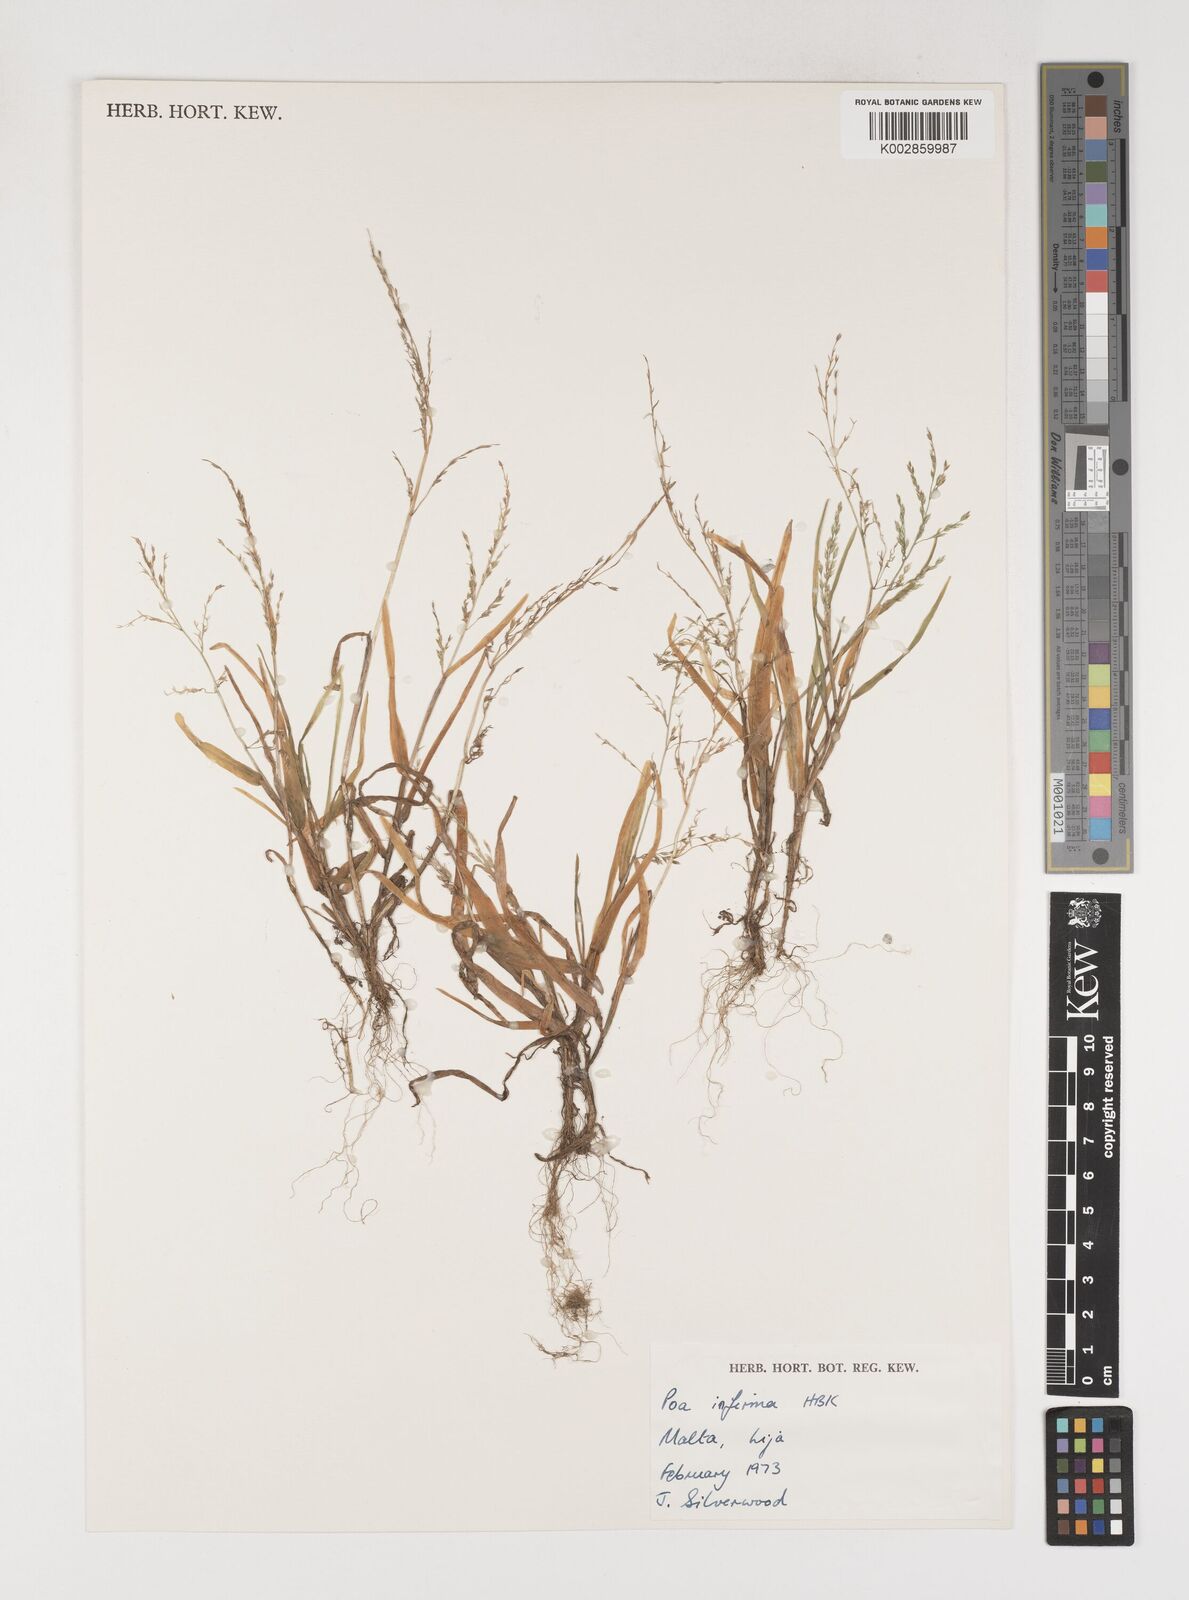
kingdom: Plantae
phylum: Tracheophyta
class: Liliopsida
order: Poales
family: Poaceae
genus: Poa
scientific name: Poa infirma
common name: Weak bluegrass
